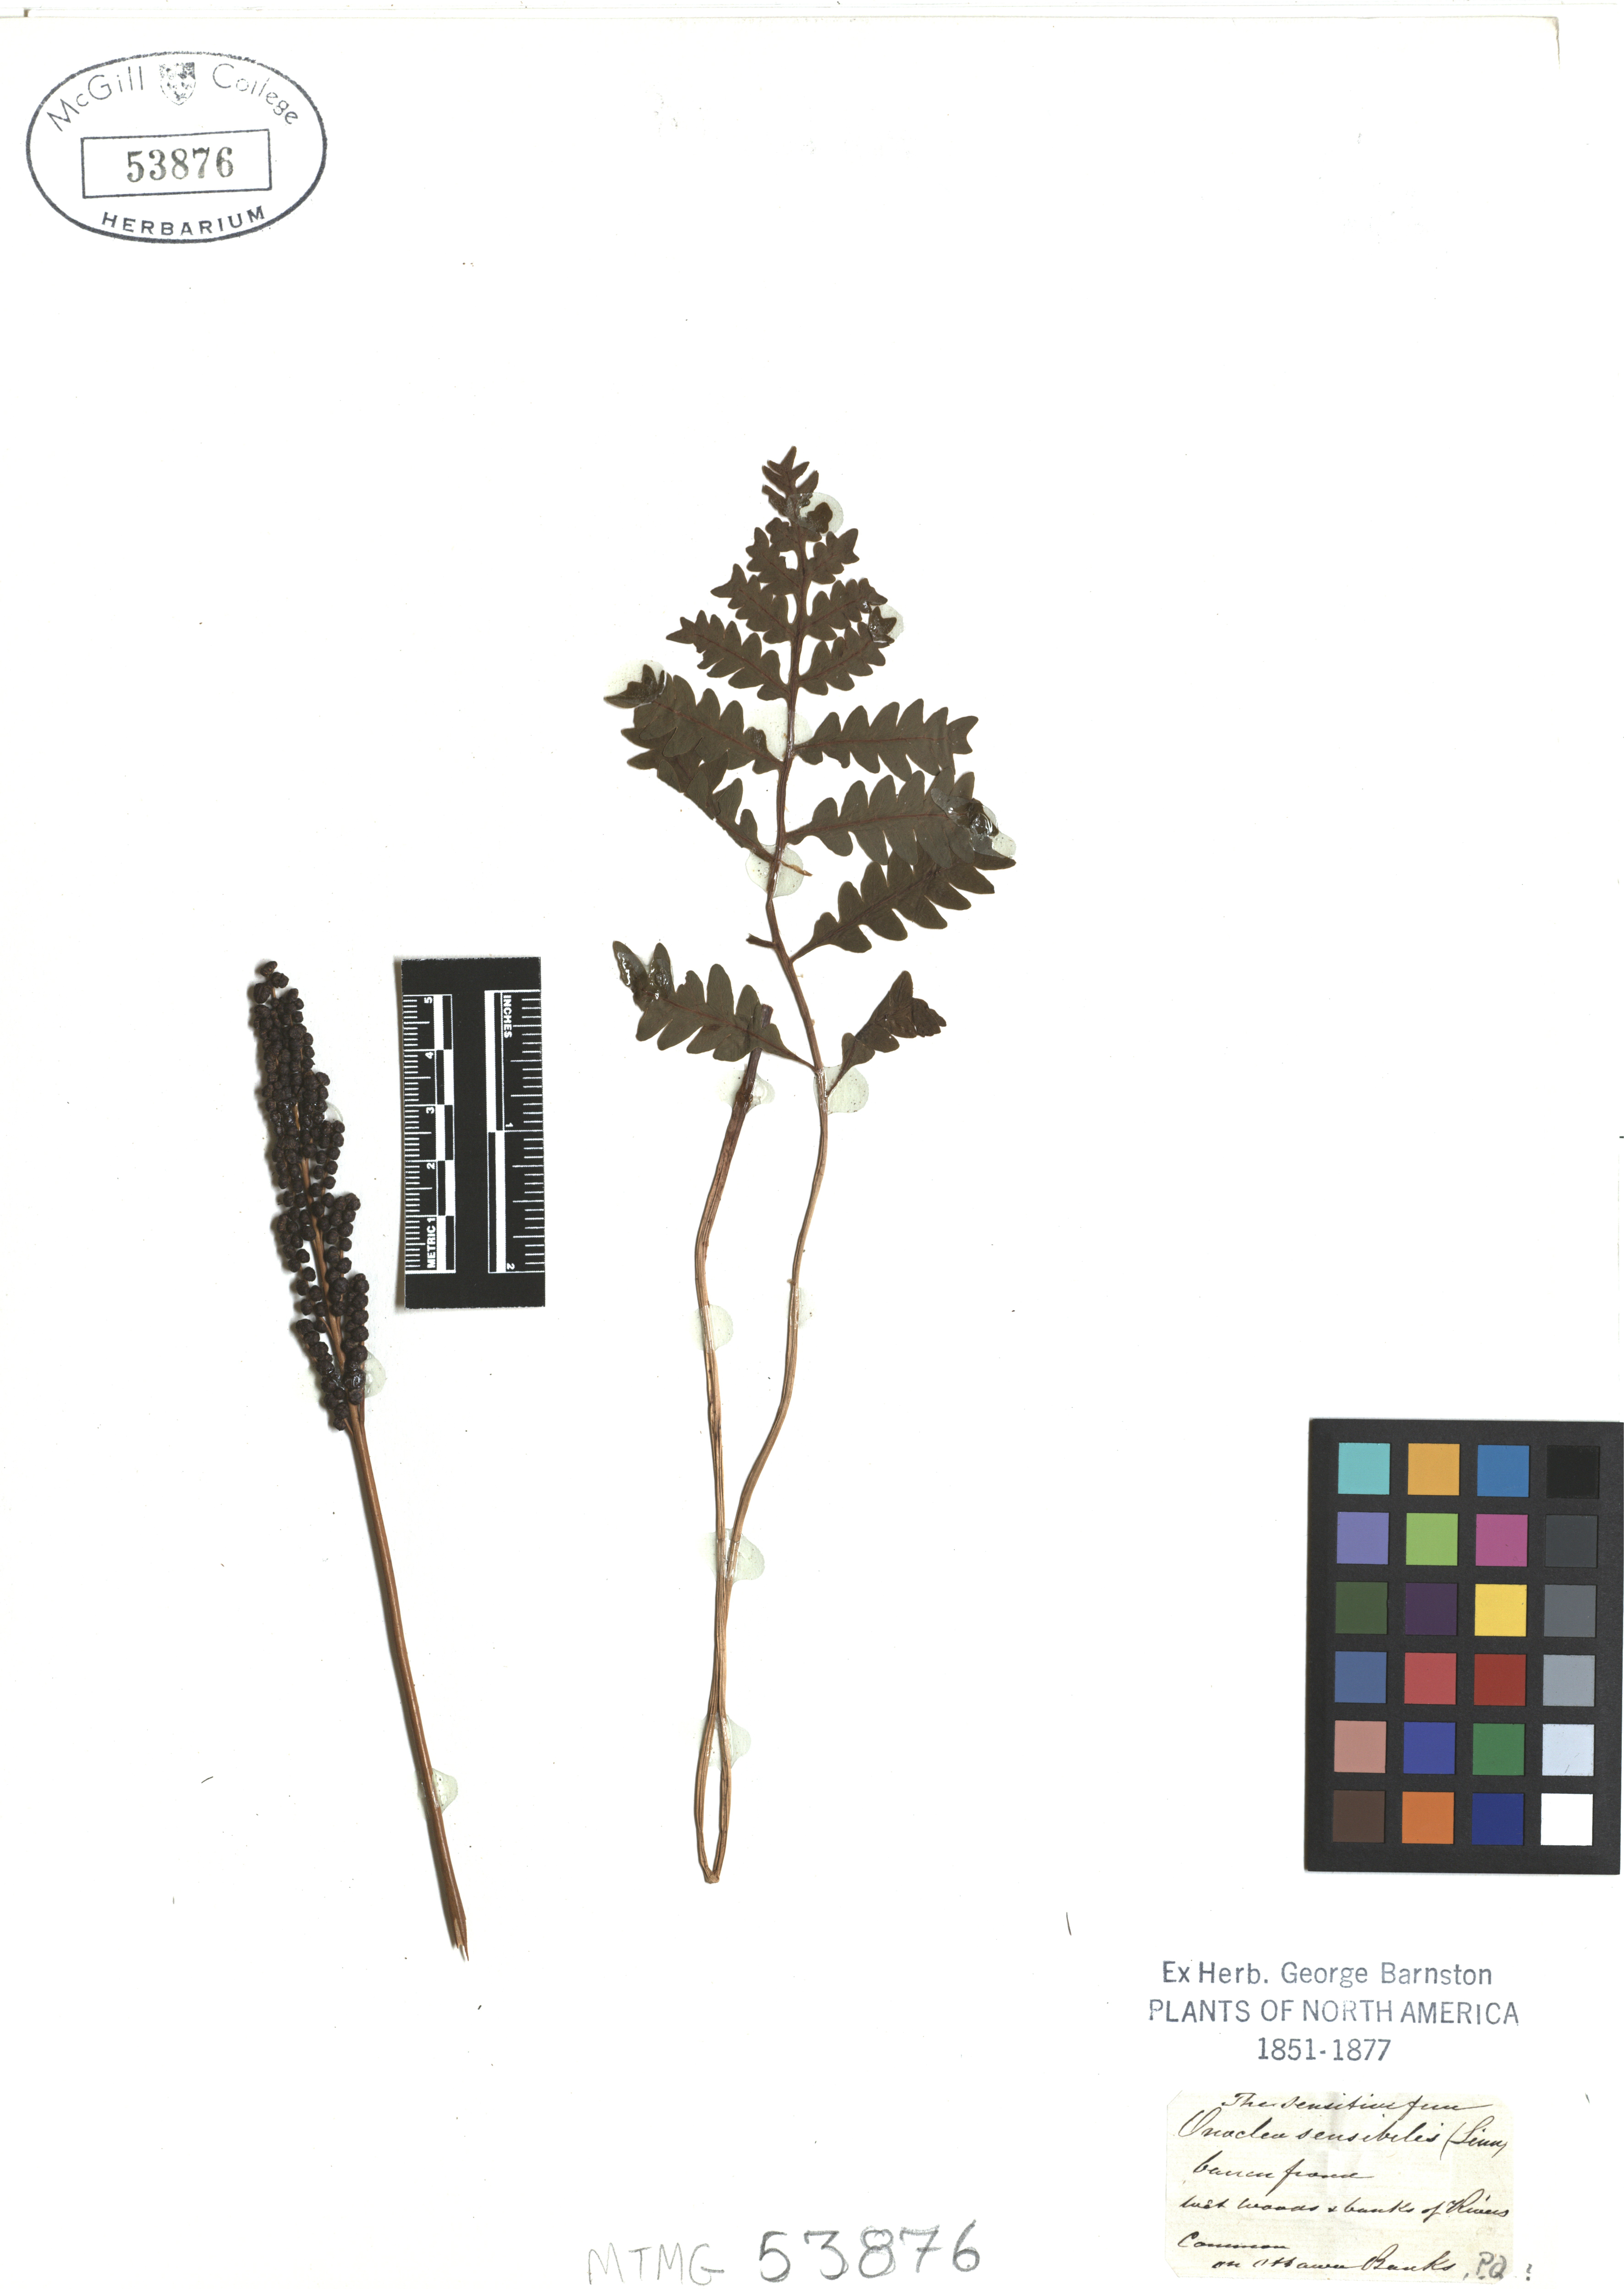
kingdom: Plantae
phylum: Tracheophyta
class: Polypodiopsida
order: Polypodiales
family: Onocleaceae
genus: Onoclea
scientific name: Onoclea sensibilis
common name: Sensitive fern
